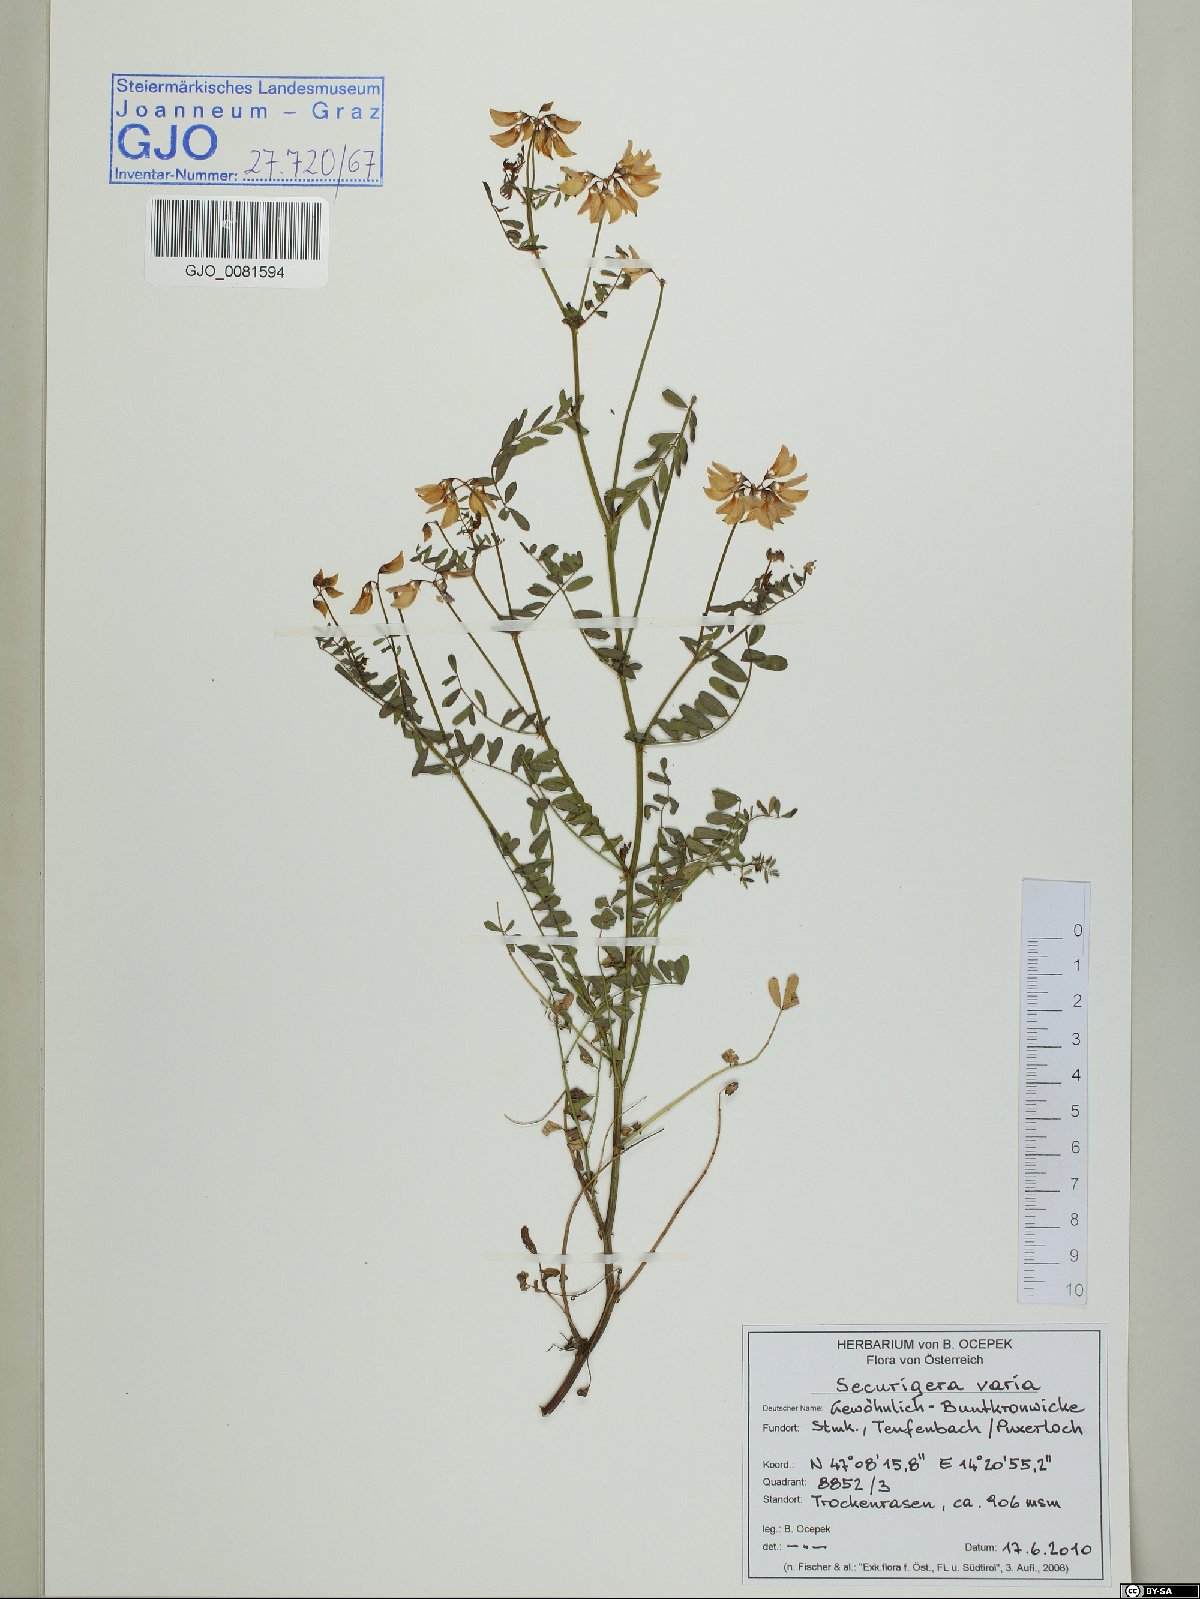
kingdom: Plantae
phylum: Tracheophyta
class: Magnoliopsida
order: Fabales
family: Fabaceae
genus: Coronilla
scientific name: Coronilla varia
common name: Crownvetch
